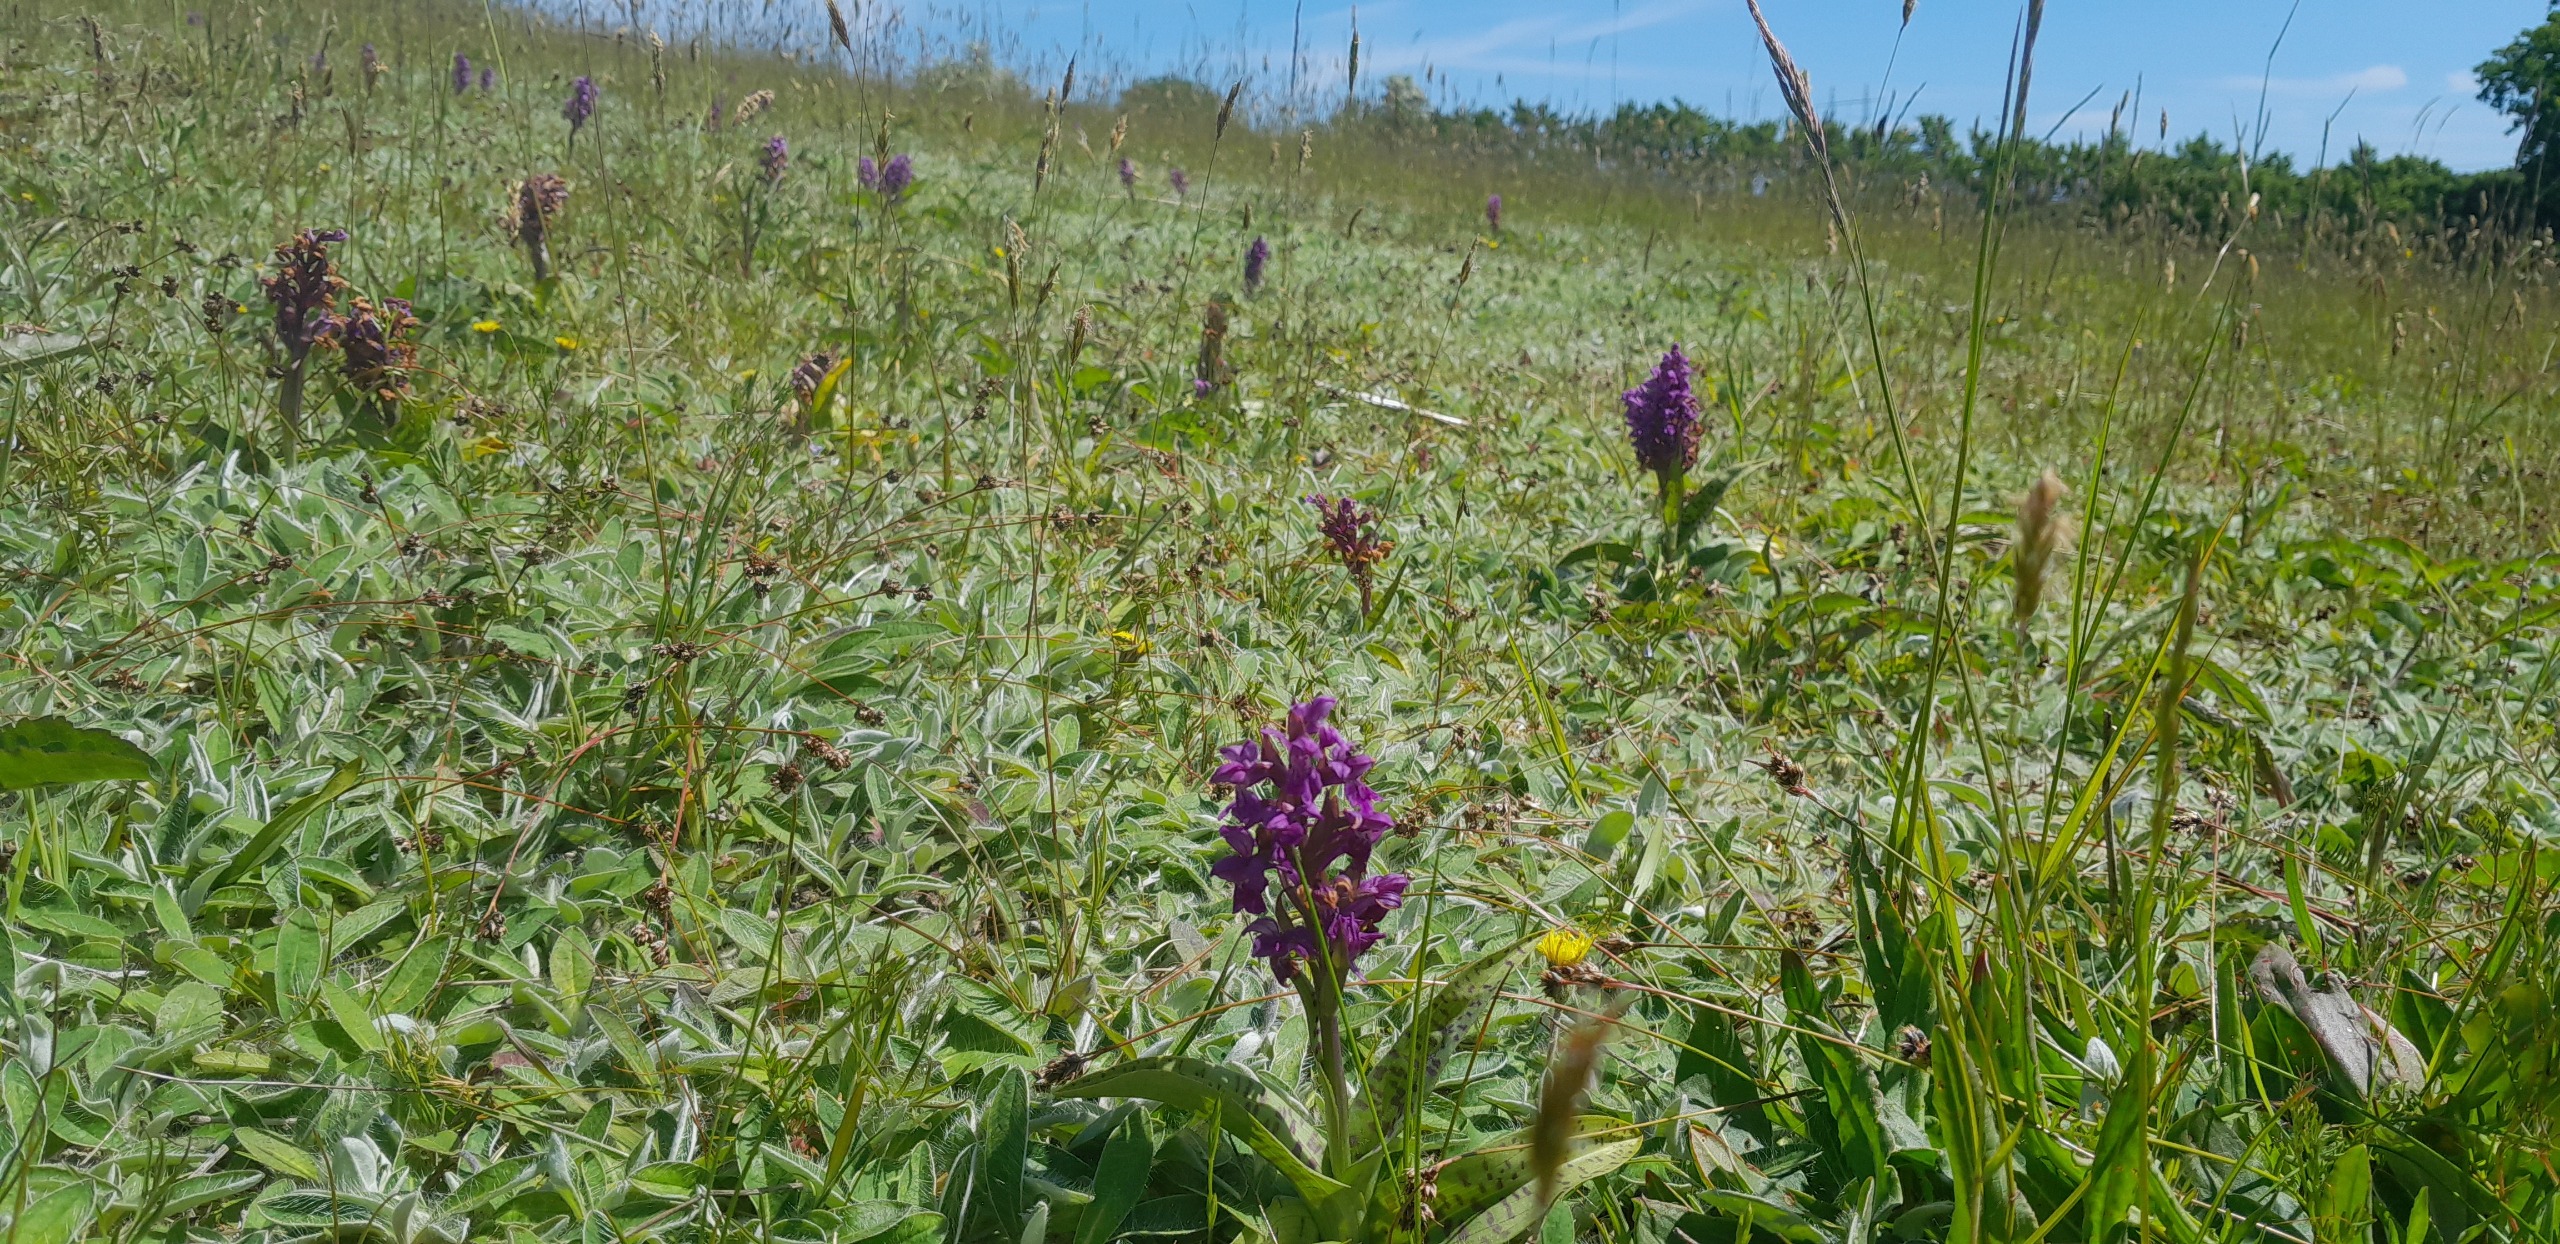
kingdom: Plantae
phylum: Tracheophyta
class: Liliopsida
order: Asparagales
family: Orchidaceae
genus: Dactylorhiza
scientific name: Dactylorhiza majalis
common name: Maj-gøgeurt
